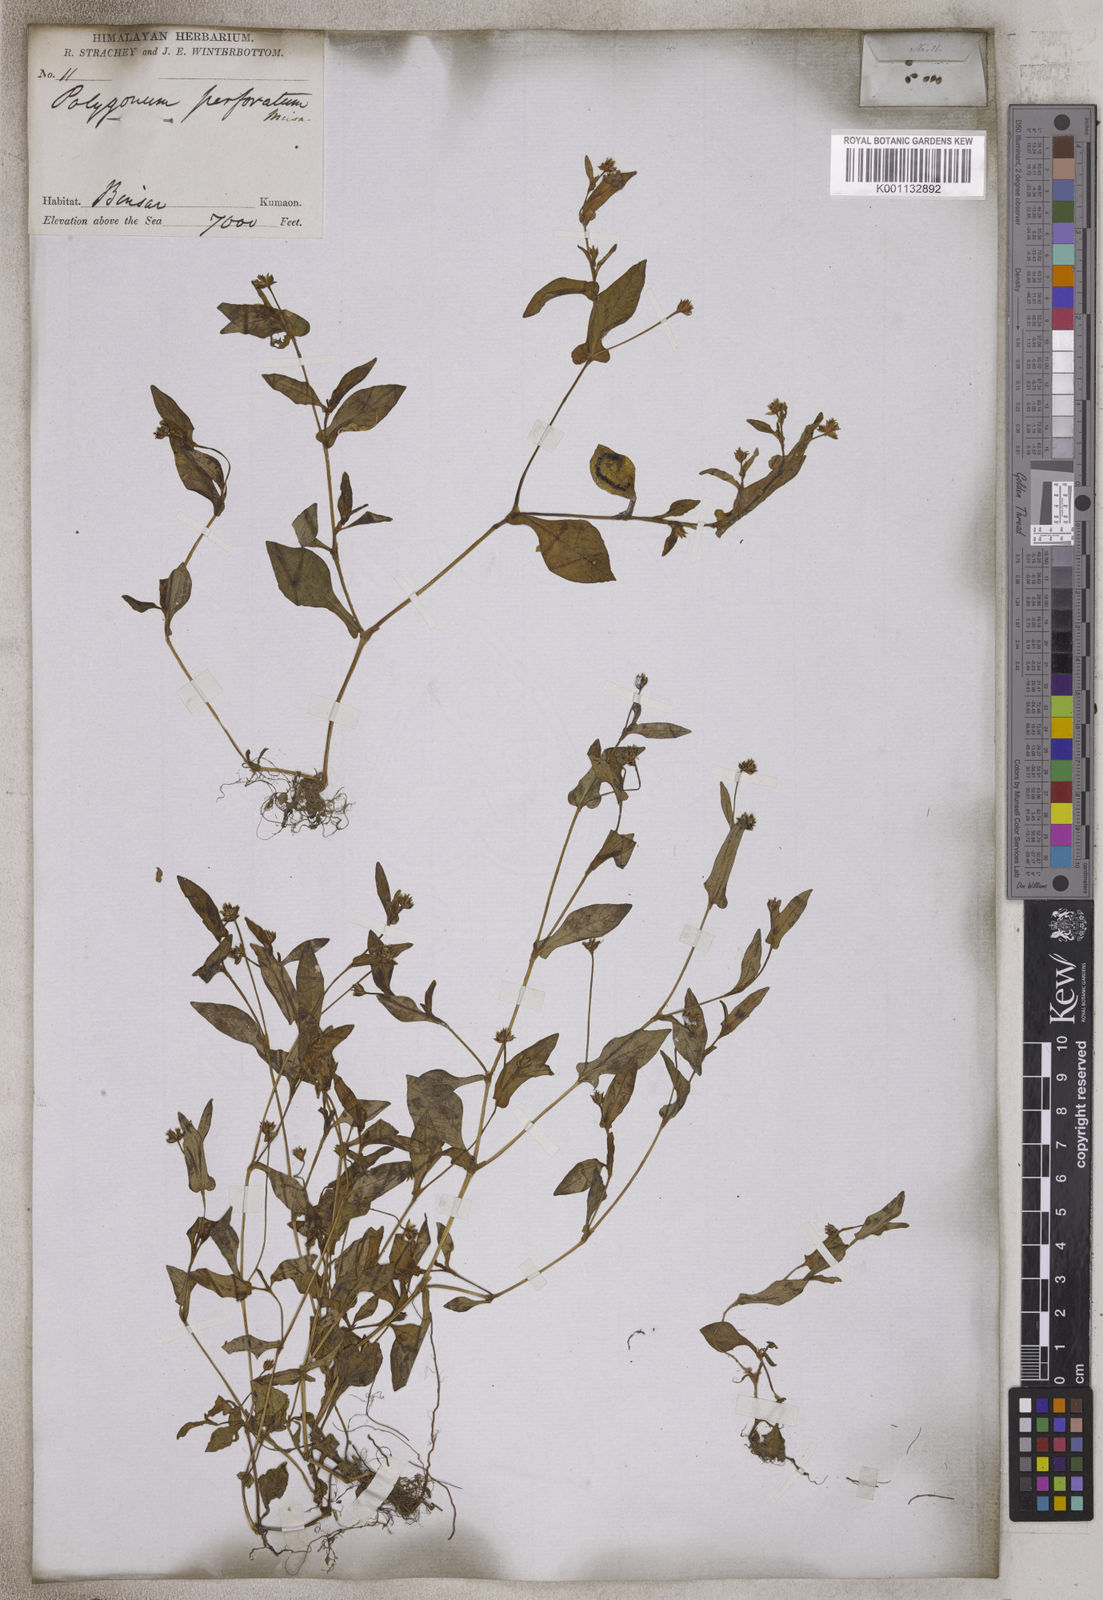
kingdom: Plantae
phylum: Tracheophyta
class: Magnoliopsida
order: Caryophyllales
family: Polygonaceae
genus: Persicaria
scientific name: Persicaria nepalensis
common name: Nepal persicaria
